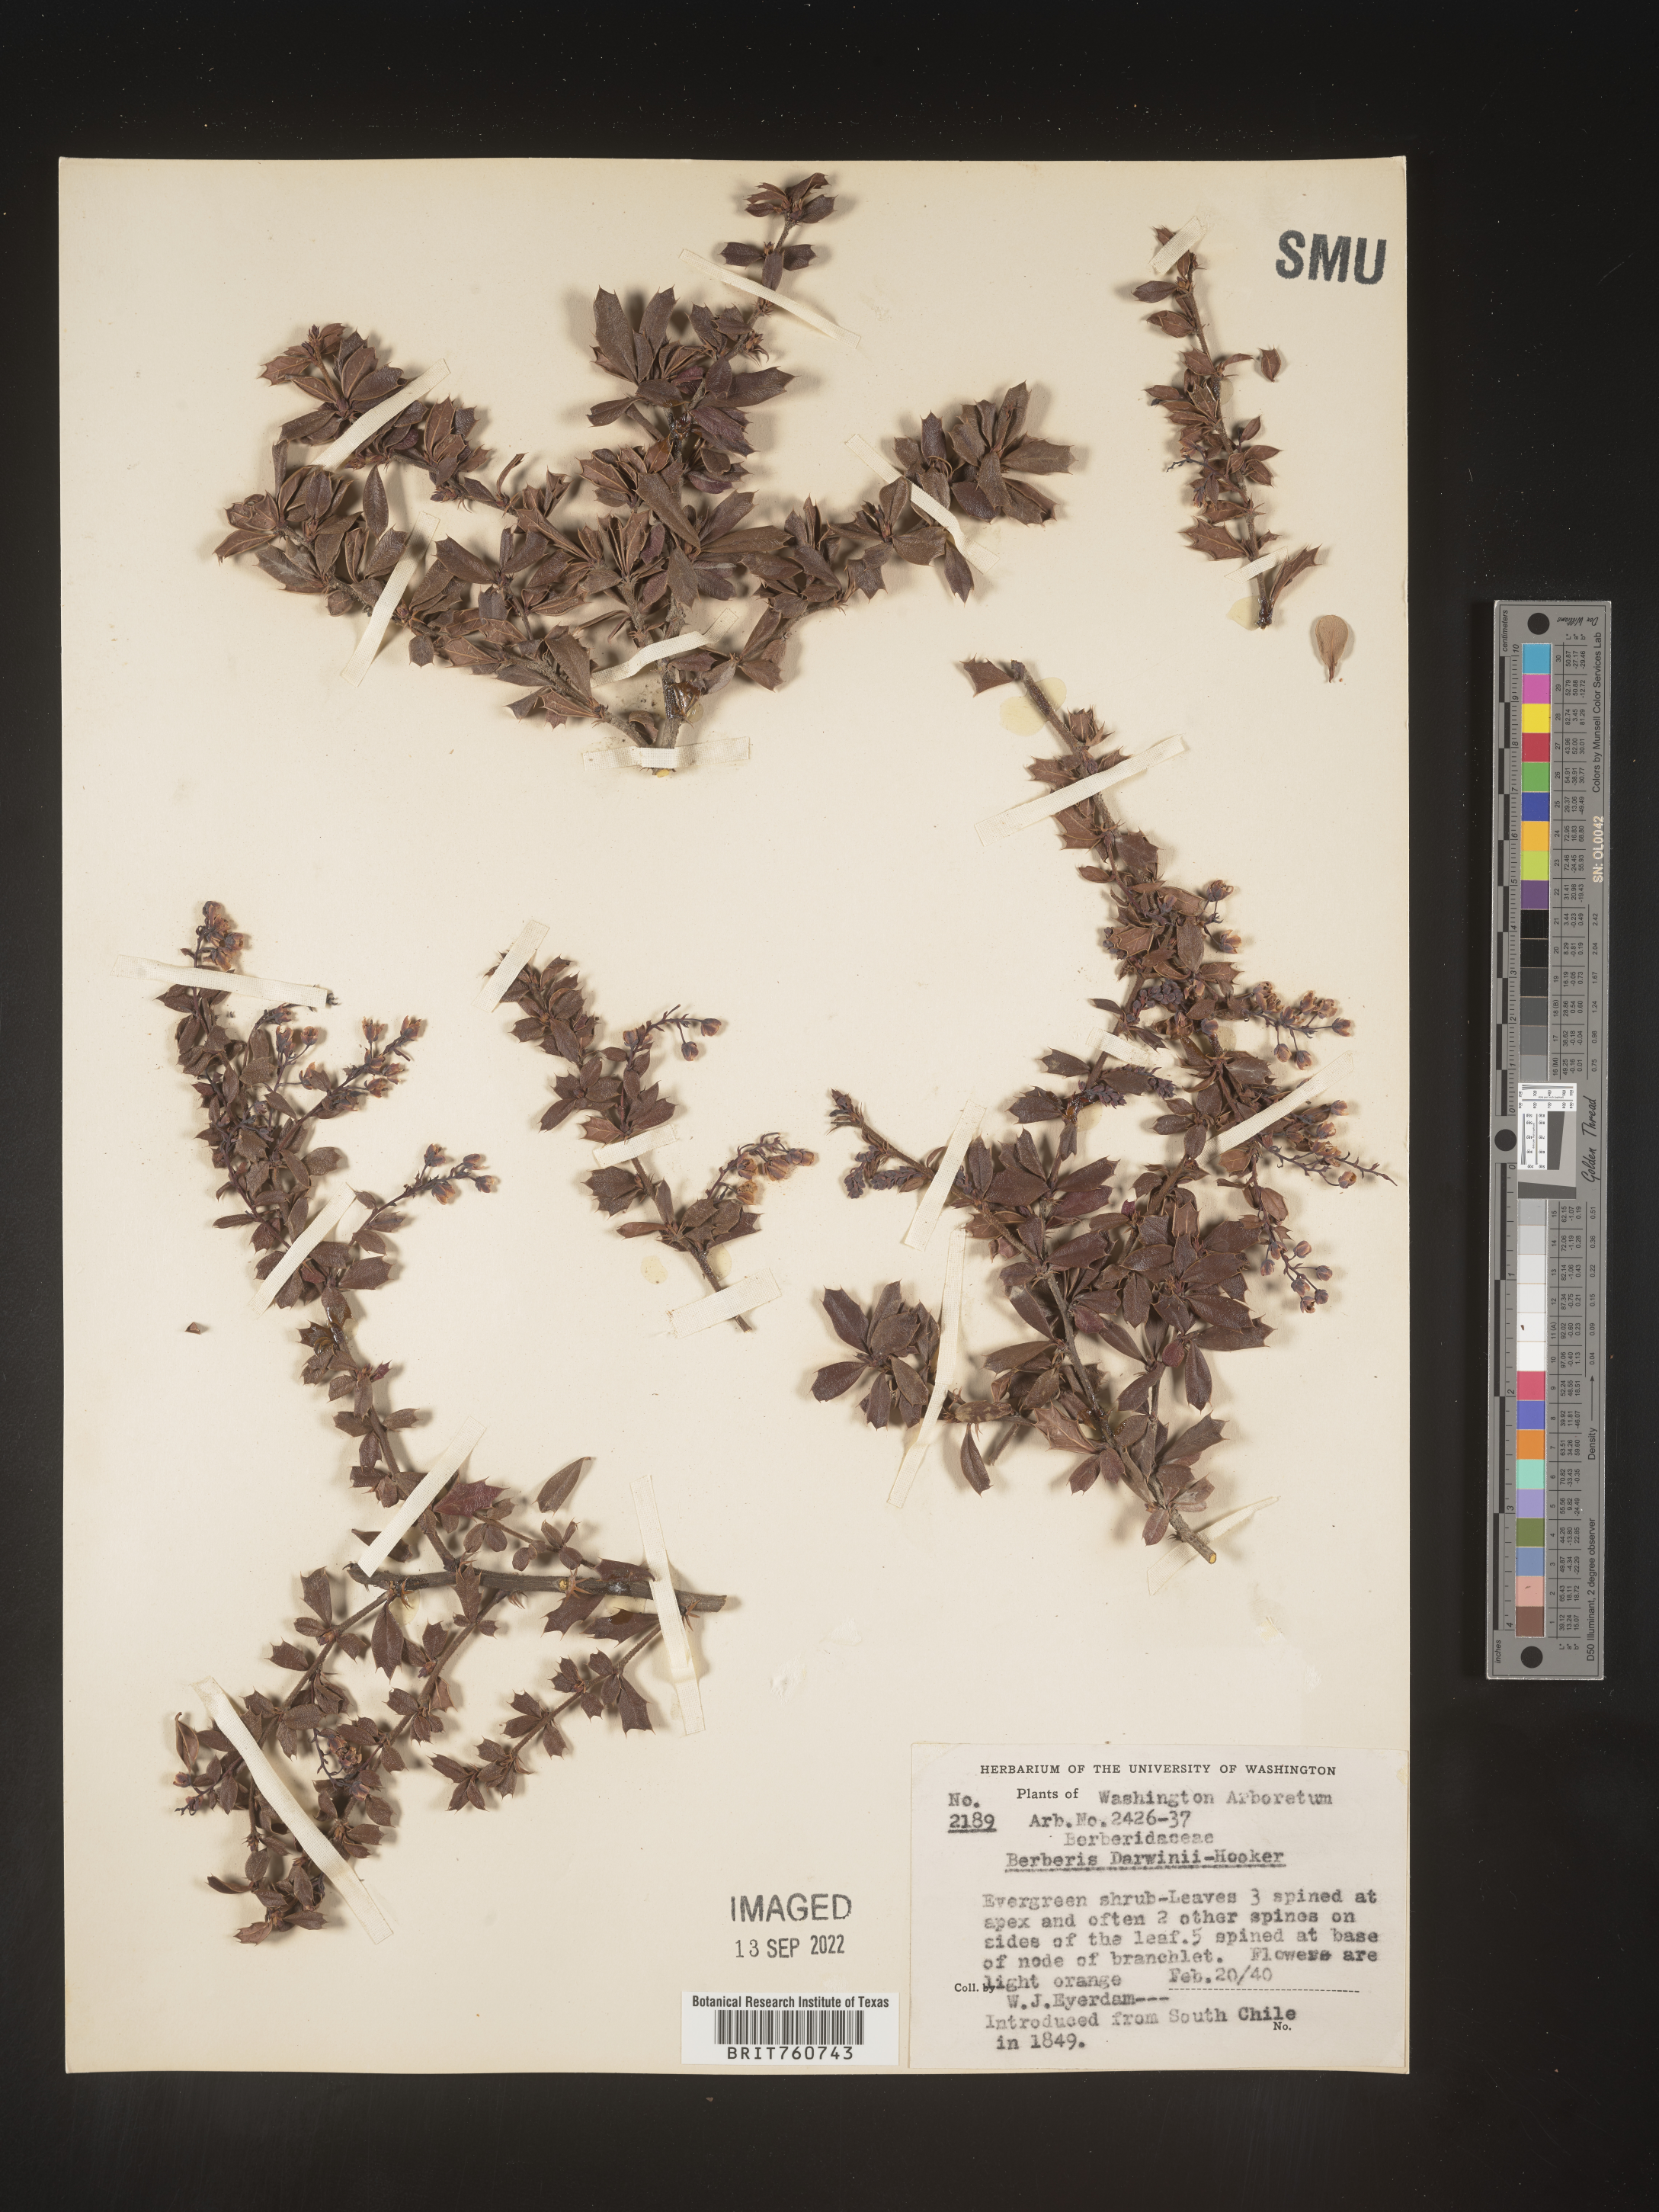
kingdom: Plantae
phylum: Tracheophyta
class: Magnoliopsida
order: Ranunculales
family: Berberidaceae
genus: Berberis
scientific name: Berberis
